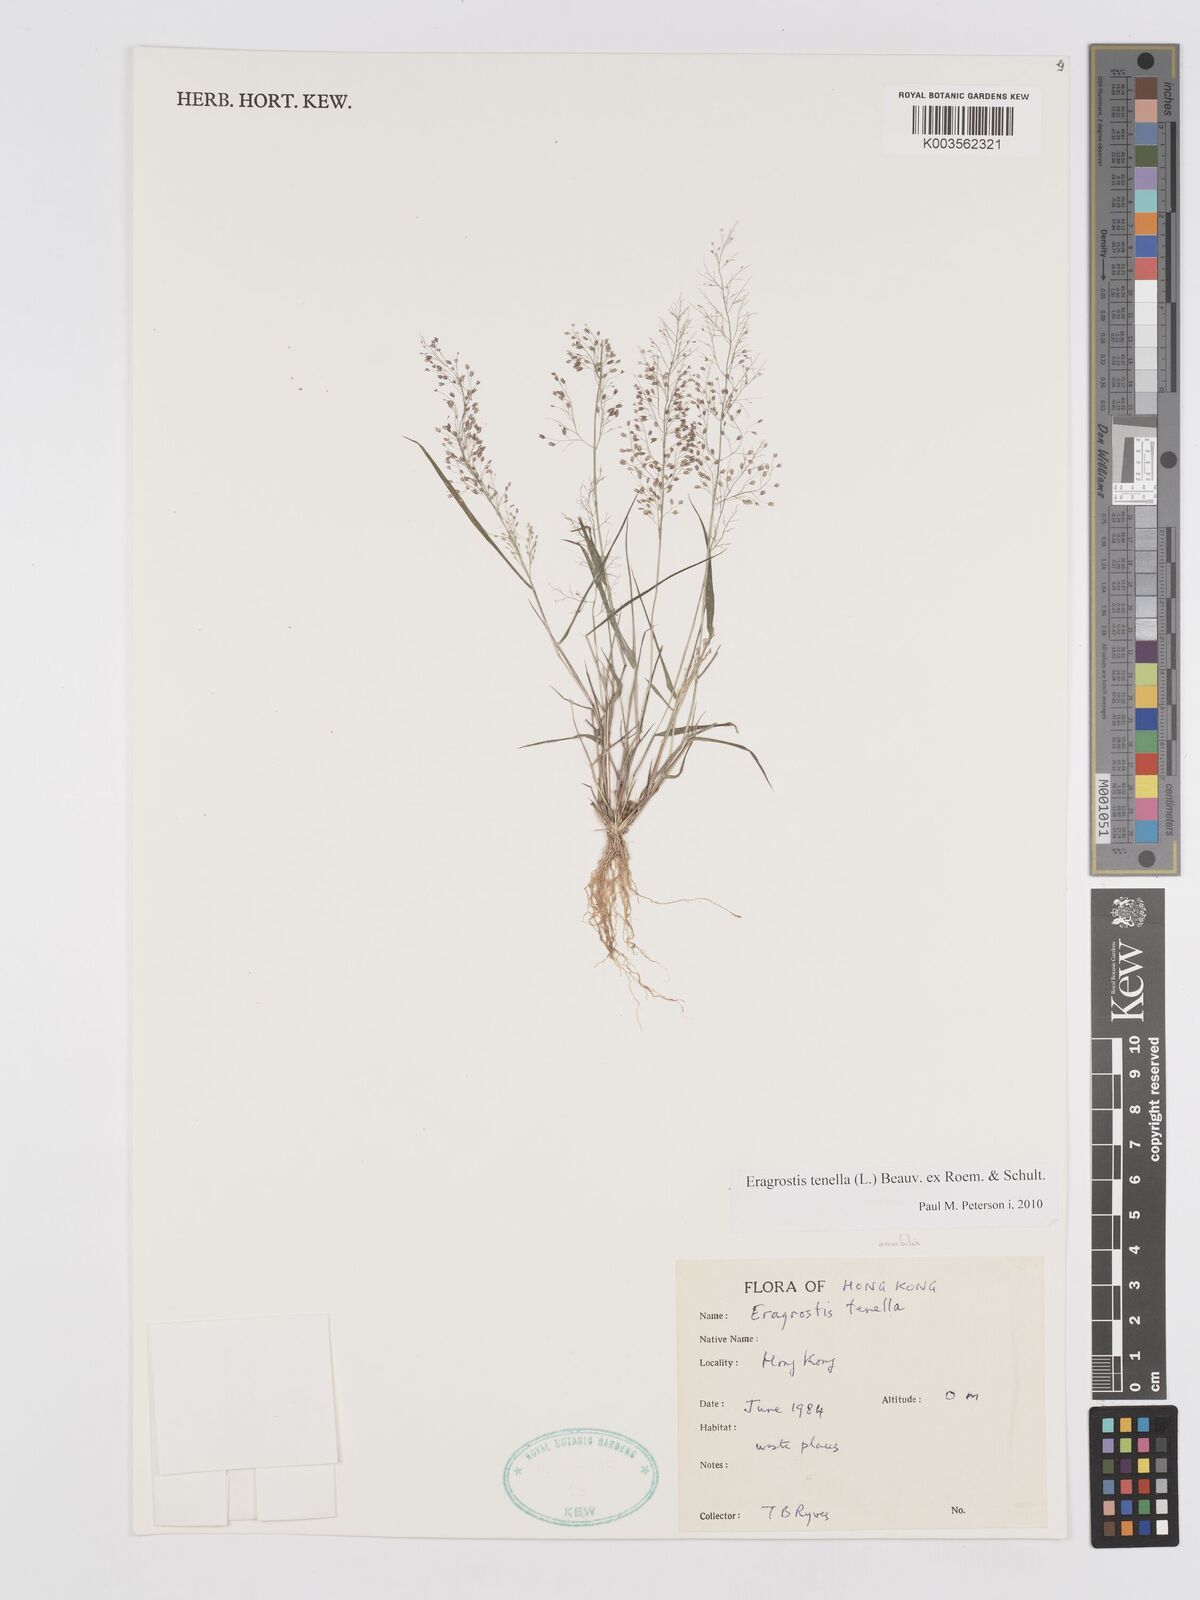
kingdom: Plantae
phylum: Tracheophyta
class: Liliopsida
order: Poales
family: Poaceae
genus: Eragrostis
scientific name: Eragrostis tenella
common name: Japanese lovegrass
